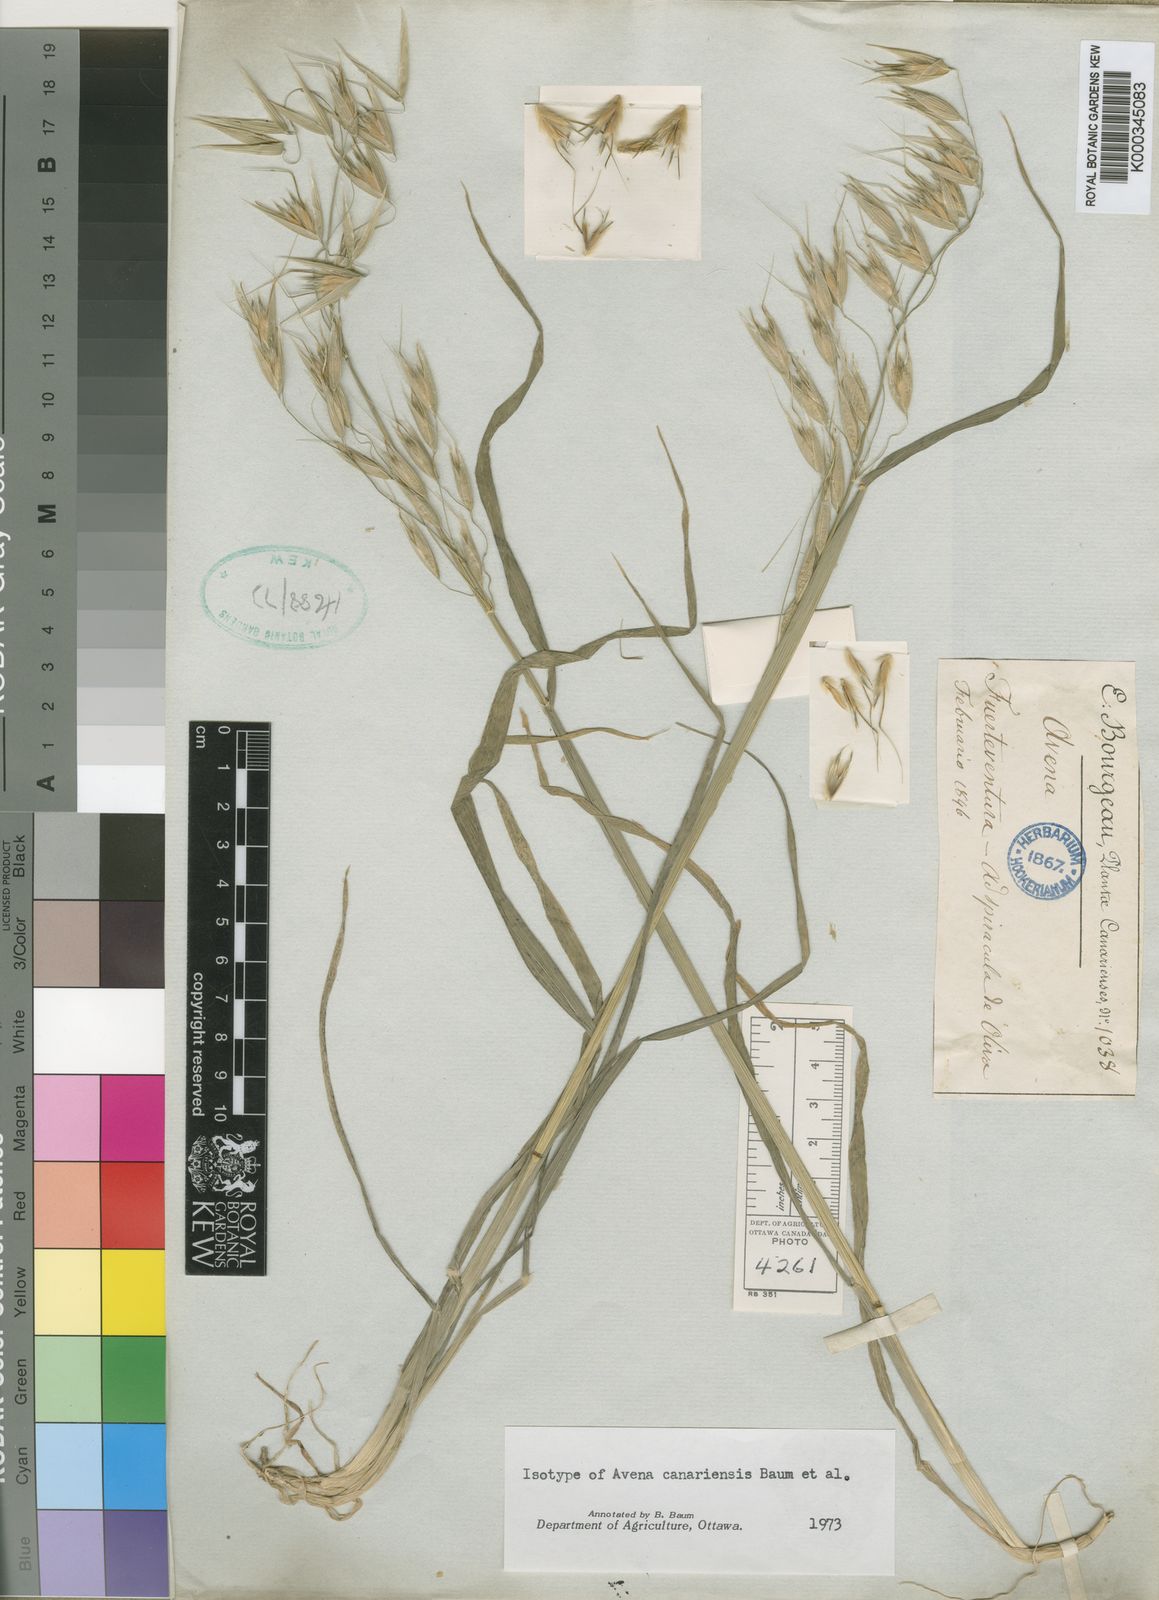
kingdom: Plantae
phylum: Tracheophyta
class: Liliopsida
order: Poales
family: Poaceae
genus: Avena
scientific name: Avena
